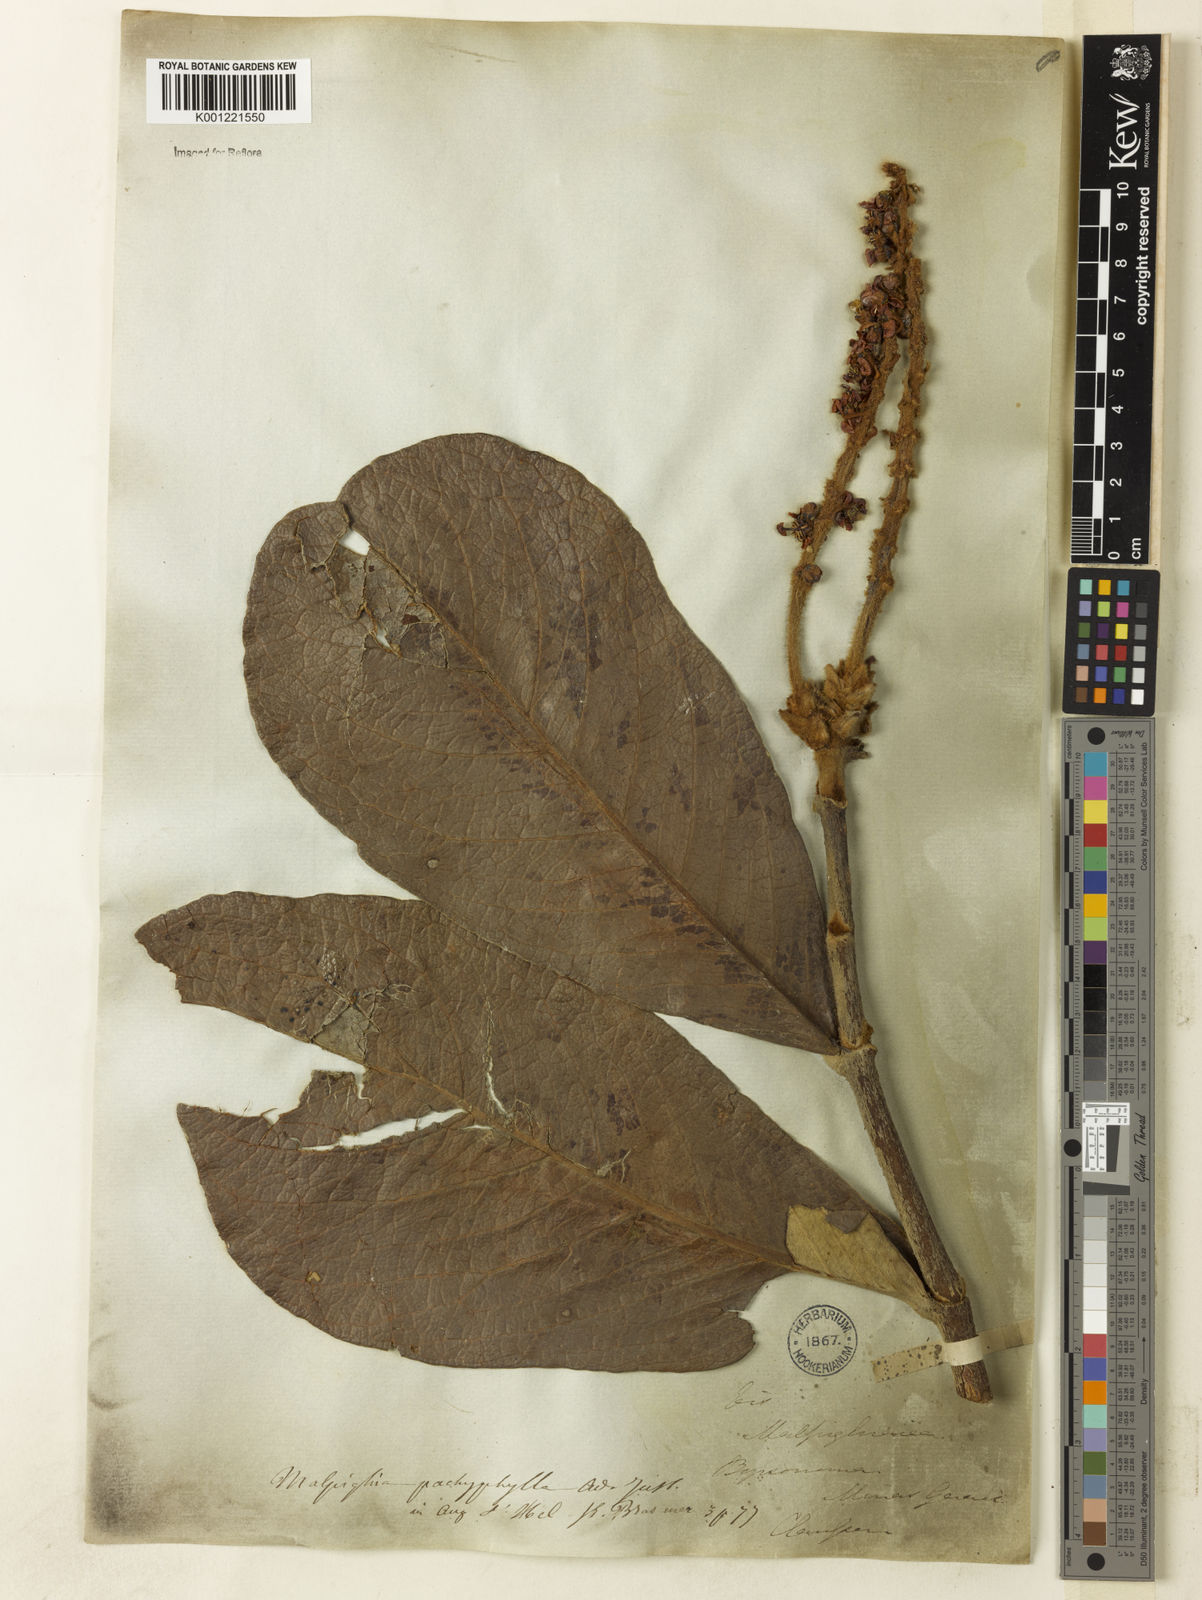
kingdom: Plantae
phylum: Tracheophyta
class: Magnoliopsida
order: Malpighiales
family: Malpighiaceae
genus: Byrsonima
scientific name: Byrsonima pachyphylla
